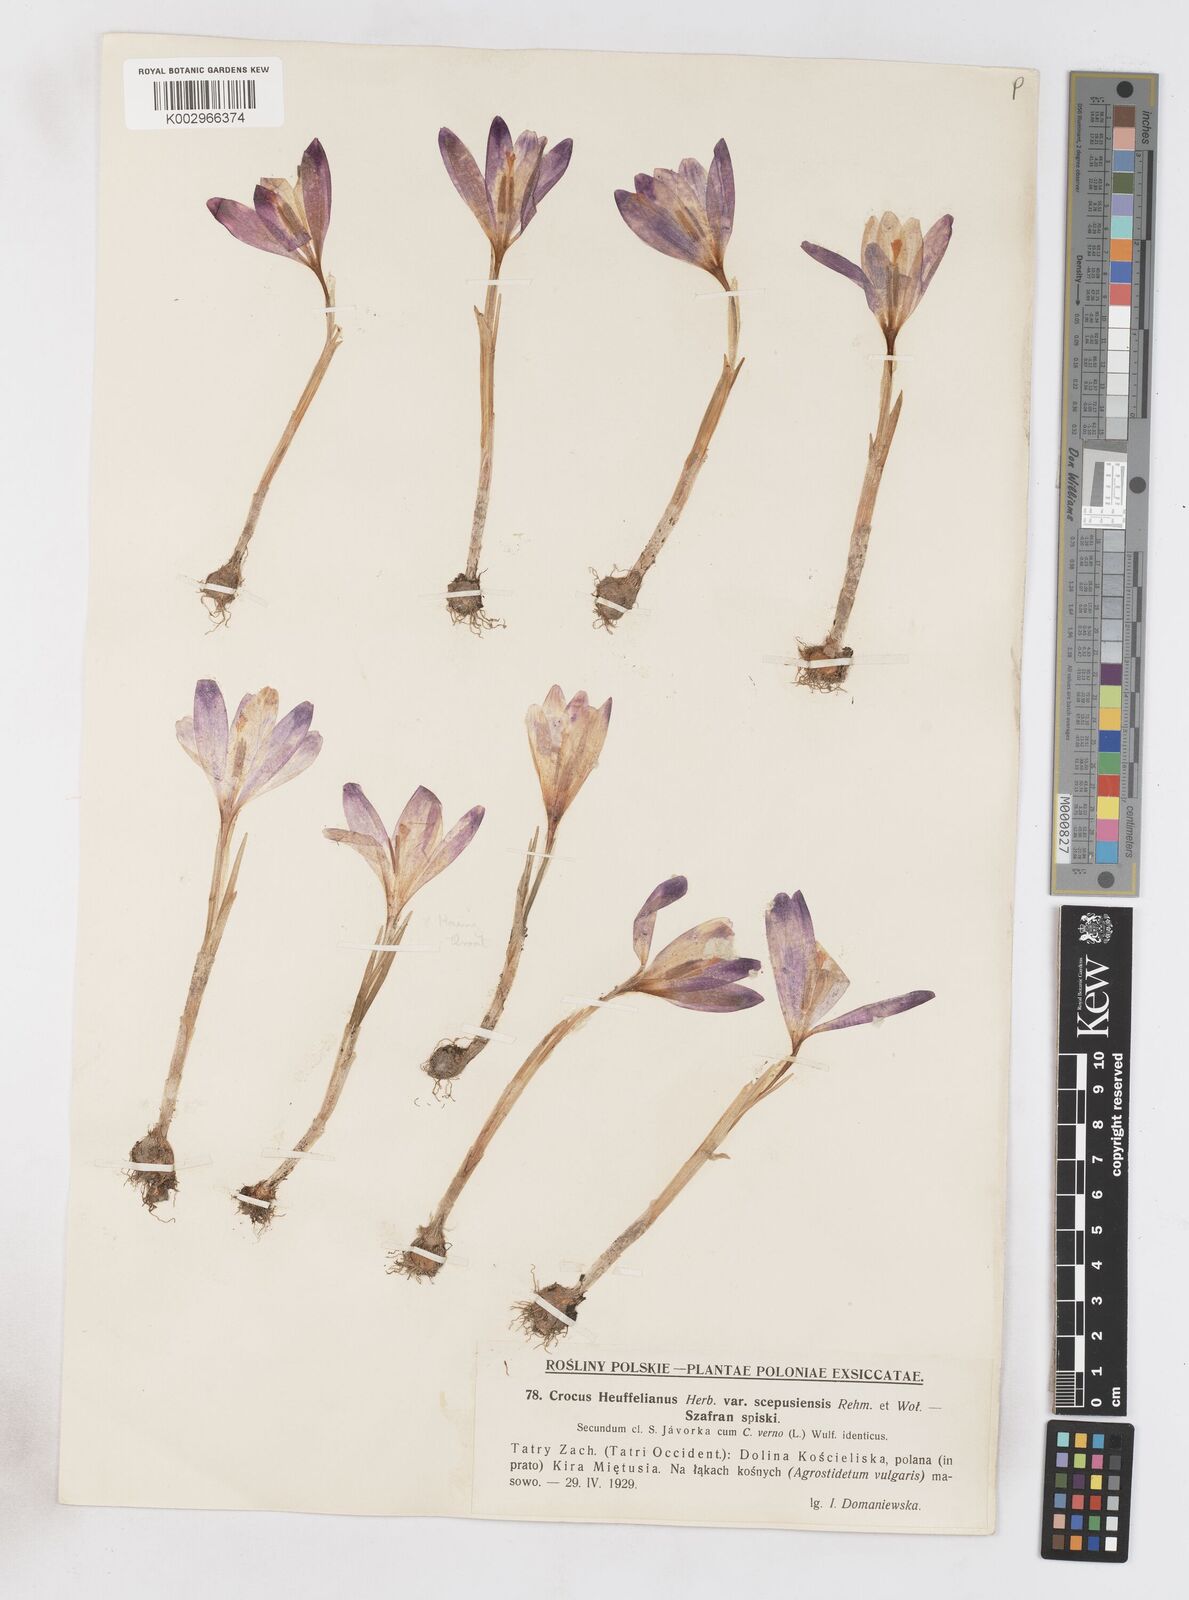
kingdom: Plantae
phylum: Tracheophyta
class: Liliopsida
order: Asparagales
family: Iridaceae
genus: Crocus
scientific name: Crocus vernus
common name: Spring crocus
